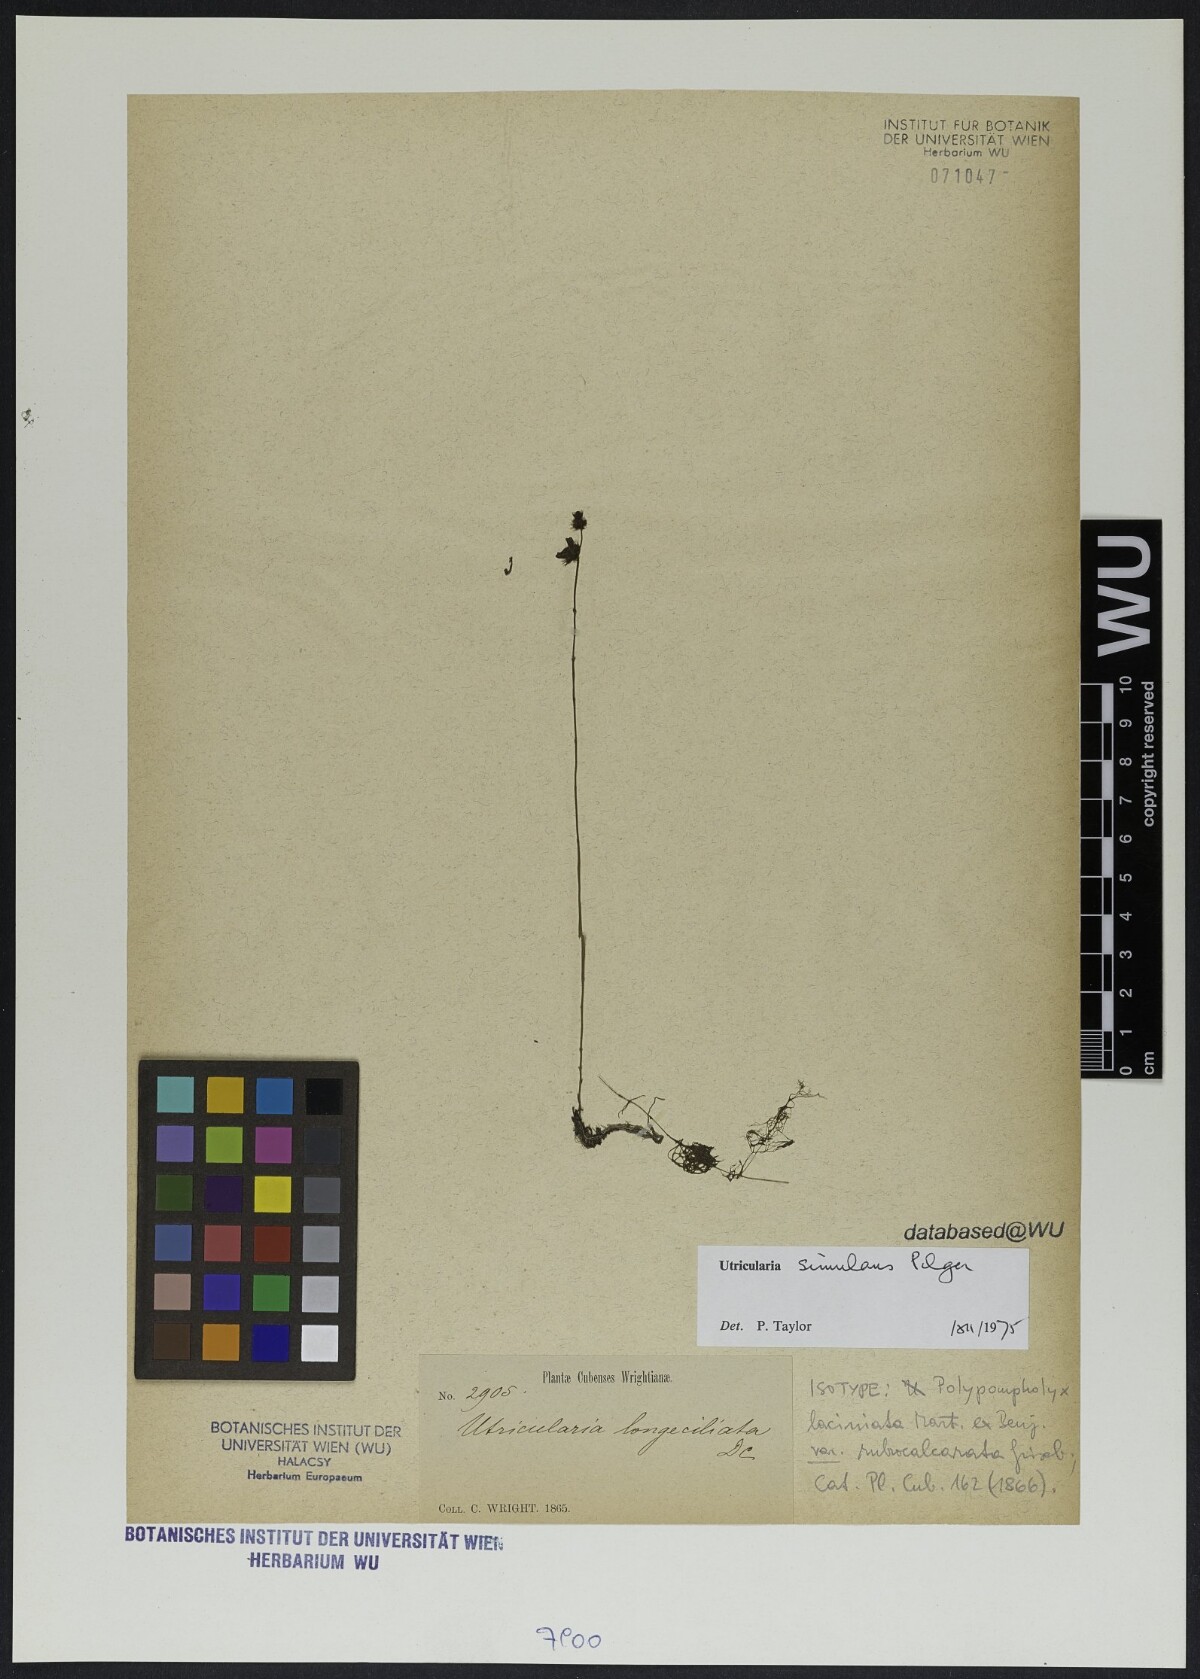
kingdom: Plantae
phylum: Tracheophyta
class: Magnoliopsida
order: Lamiales
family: Lentibulariaceae
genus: Utricularia
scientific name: Utricularia simulans
